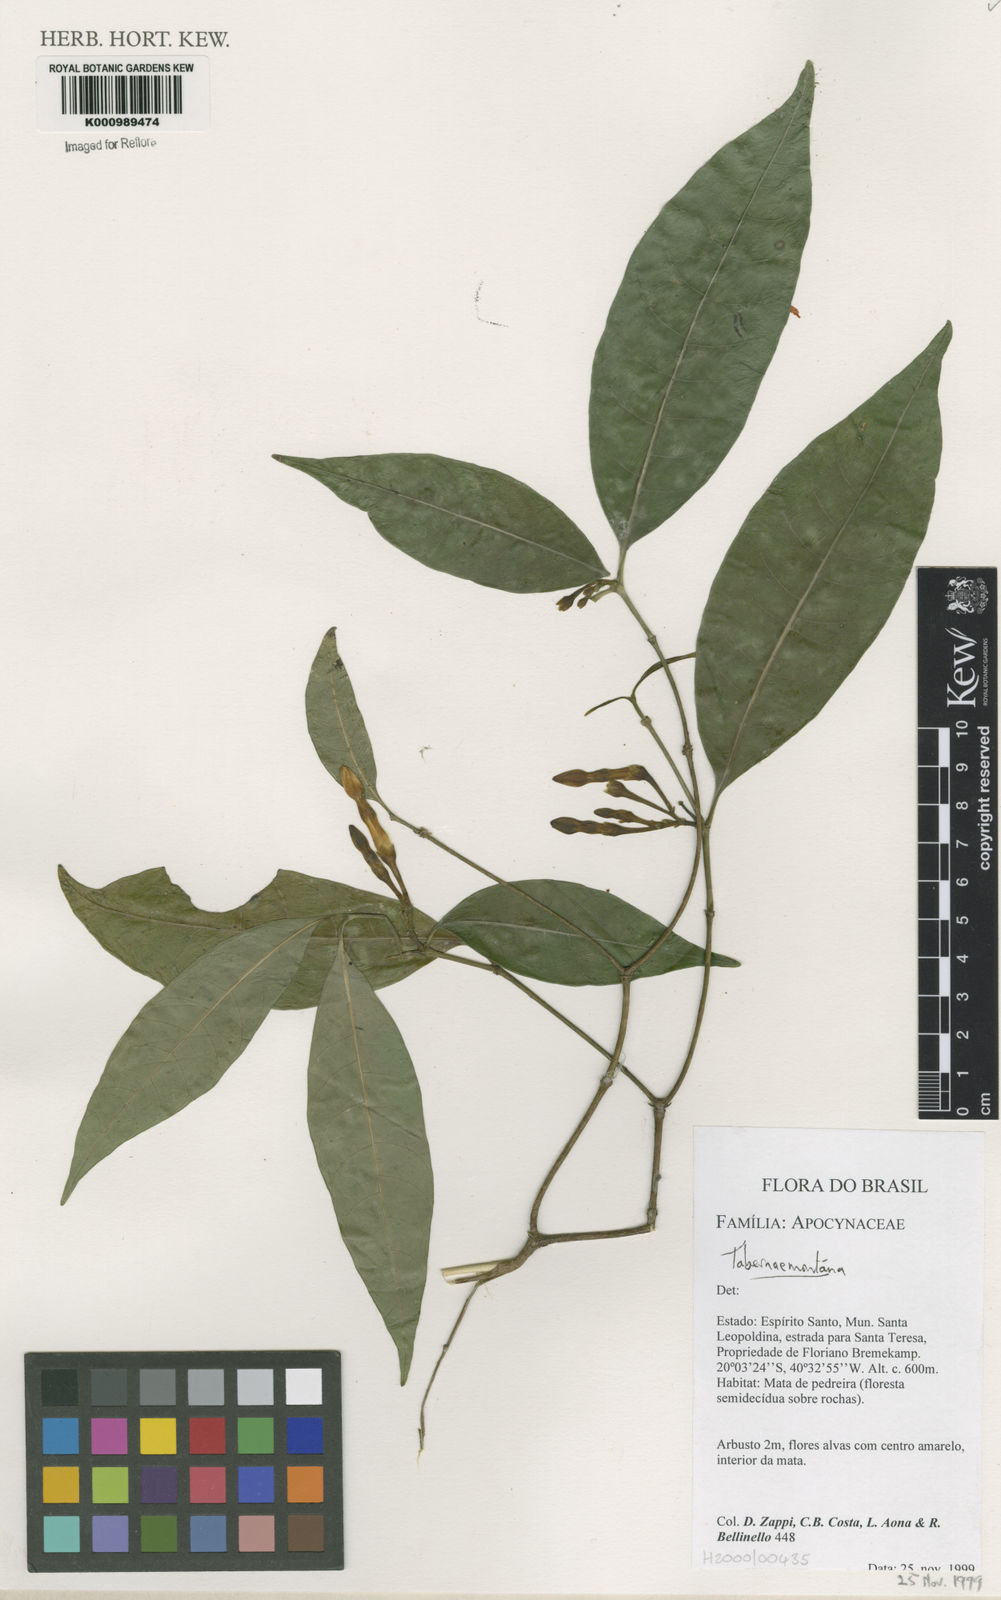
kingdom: Plantae
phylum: Tracheophyta
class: Magnoliopsida
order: Gentianales
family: Apocynaceae
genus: Tabernaemontana
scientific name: Tabernaemontana
